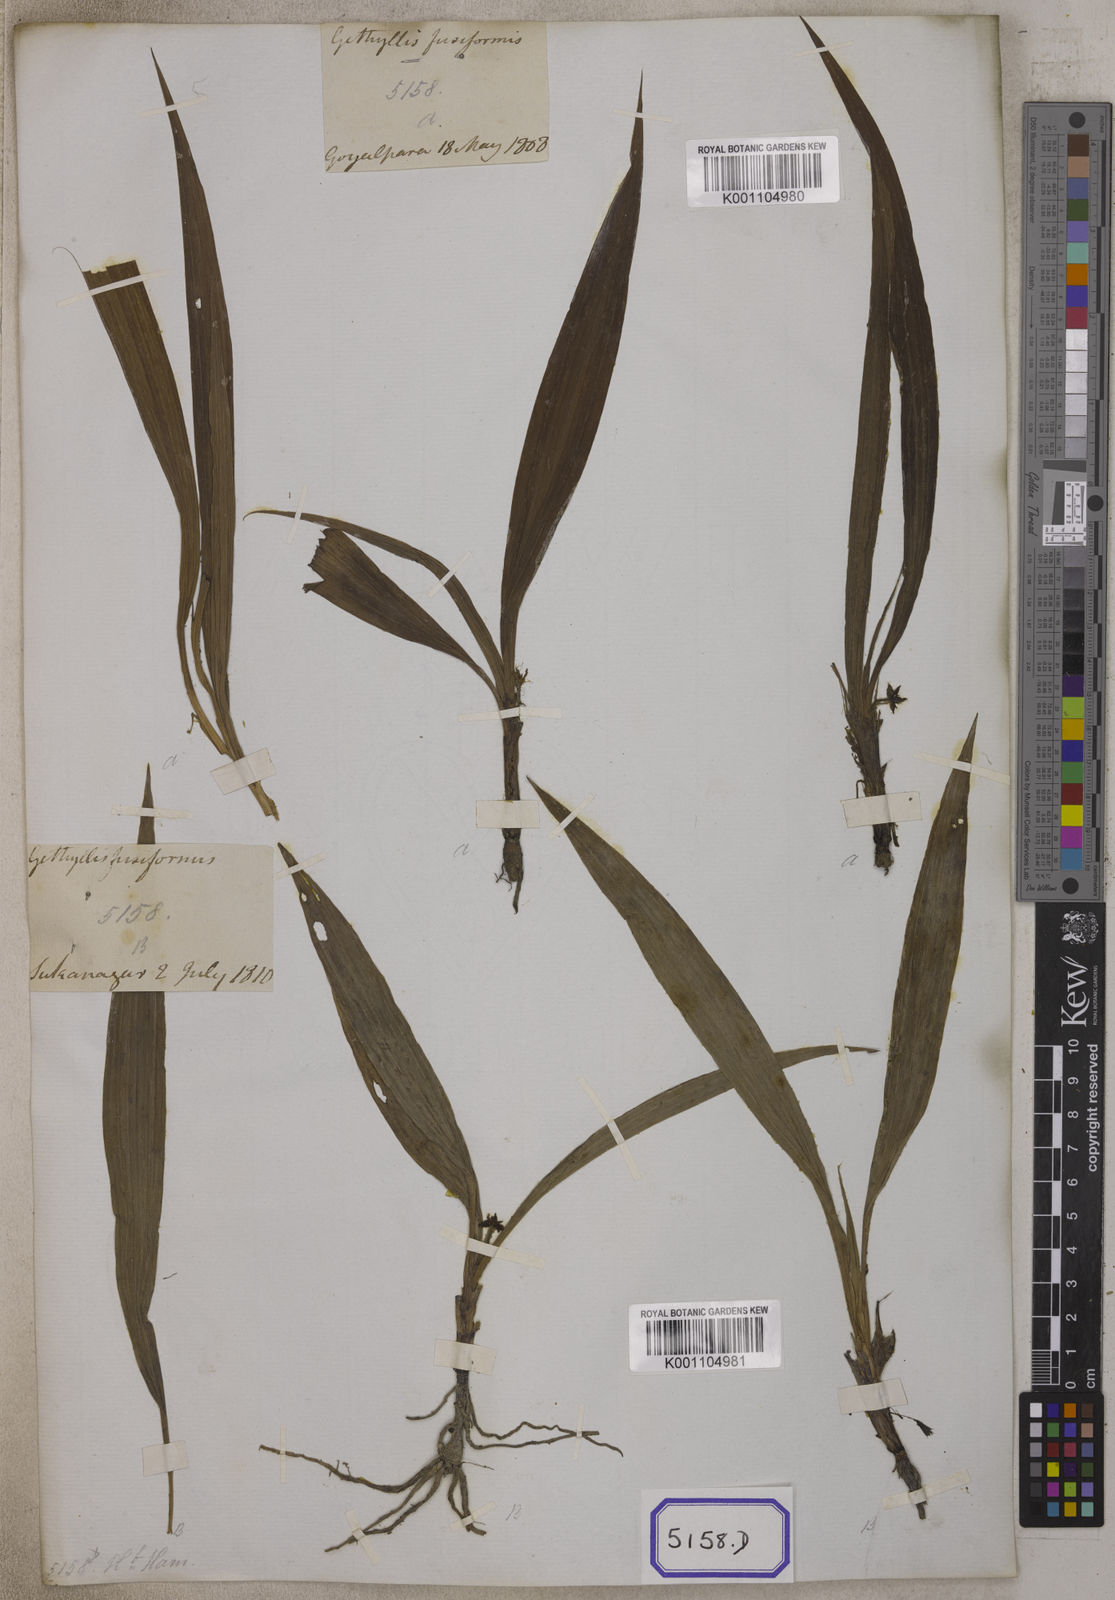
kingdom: Plantae
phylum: Tracheophyta
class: Liliopsida
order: Asparagales
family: Hypoxidaceae
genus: Curculigo
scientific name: Curculigo orchioides
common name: Golden eye-grass
